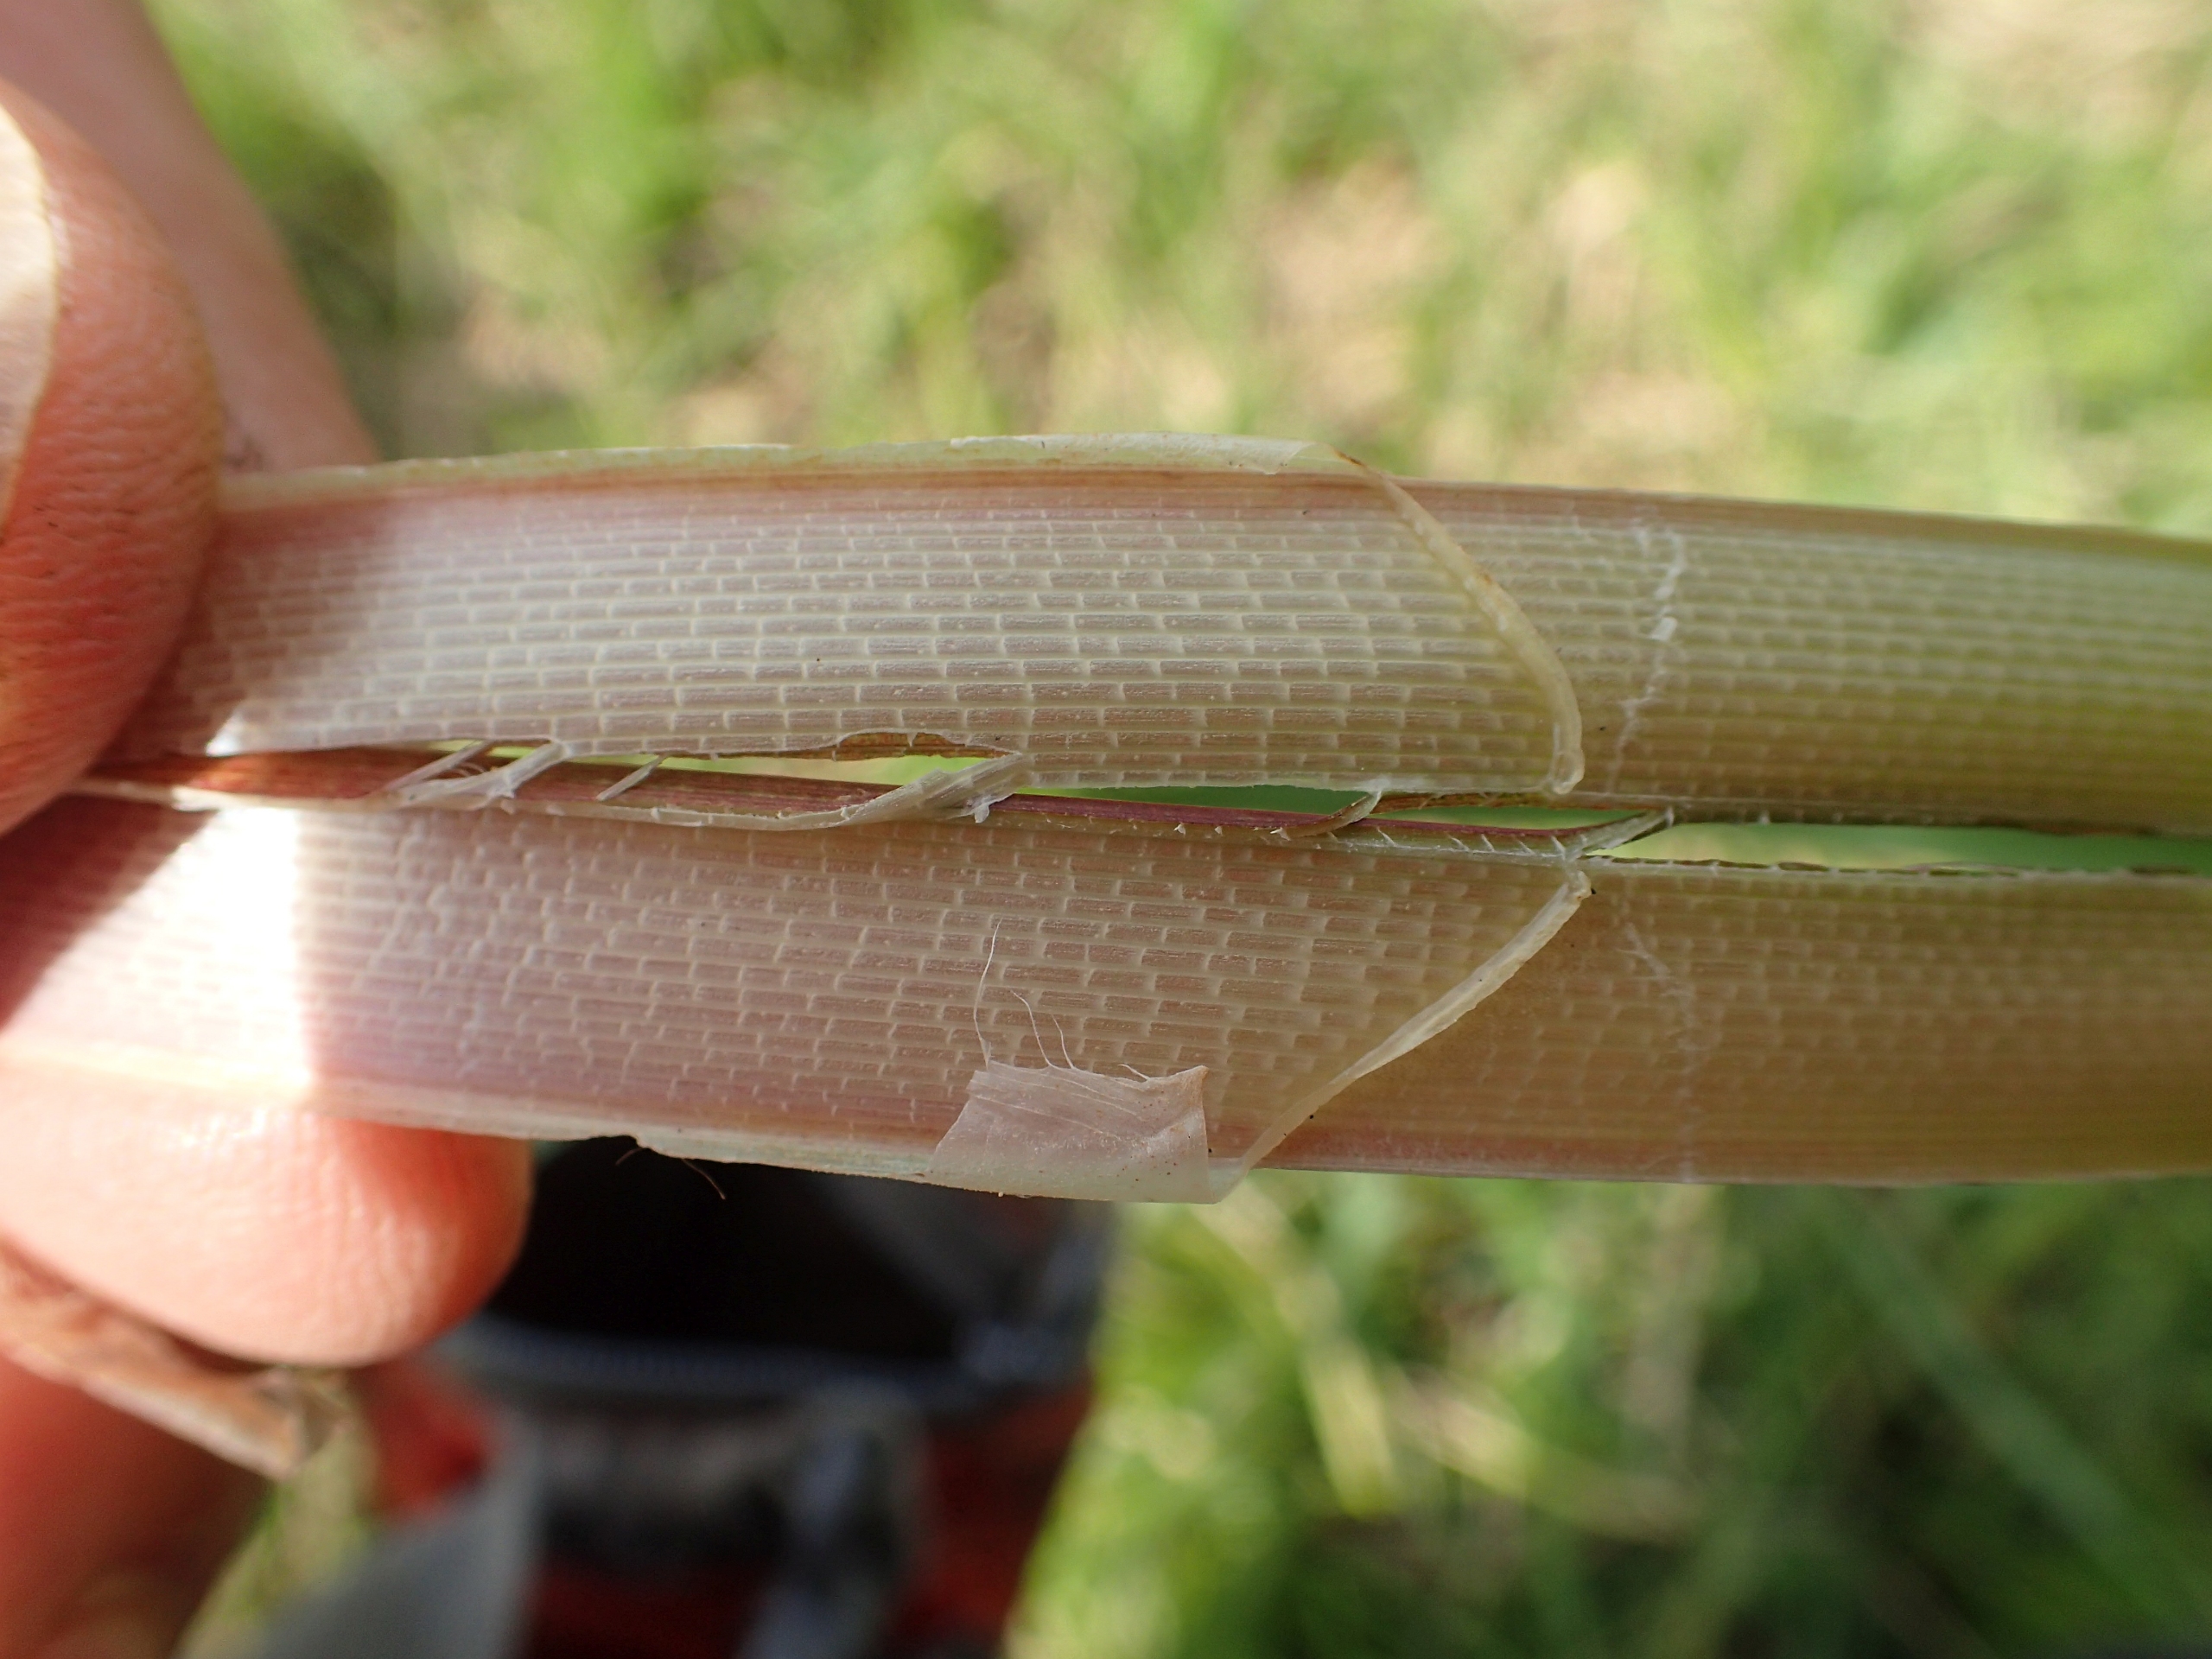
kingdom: Plantae
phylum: Tracheophyta
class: Liliopsida
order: Poales
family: Cyperaceae
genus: Carex
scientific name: Carex riparia
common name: Tykakset star
